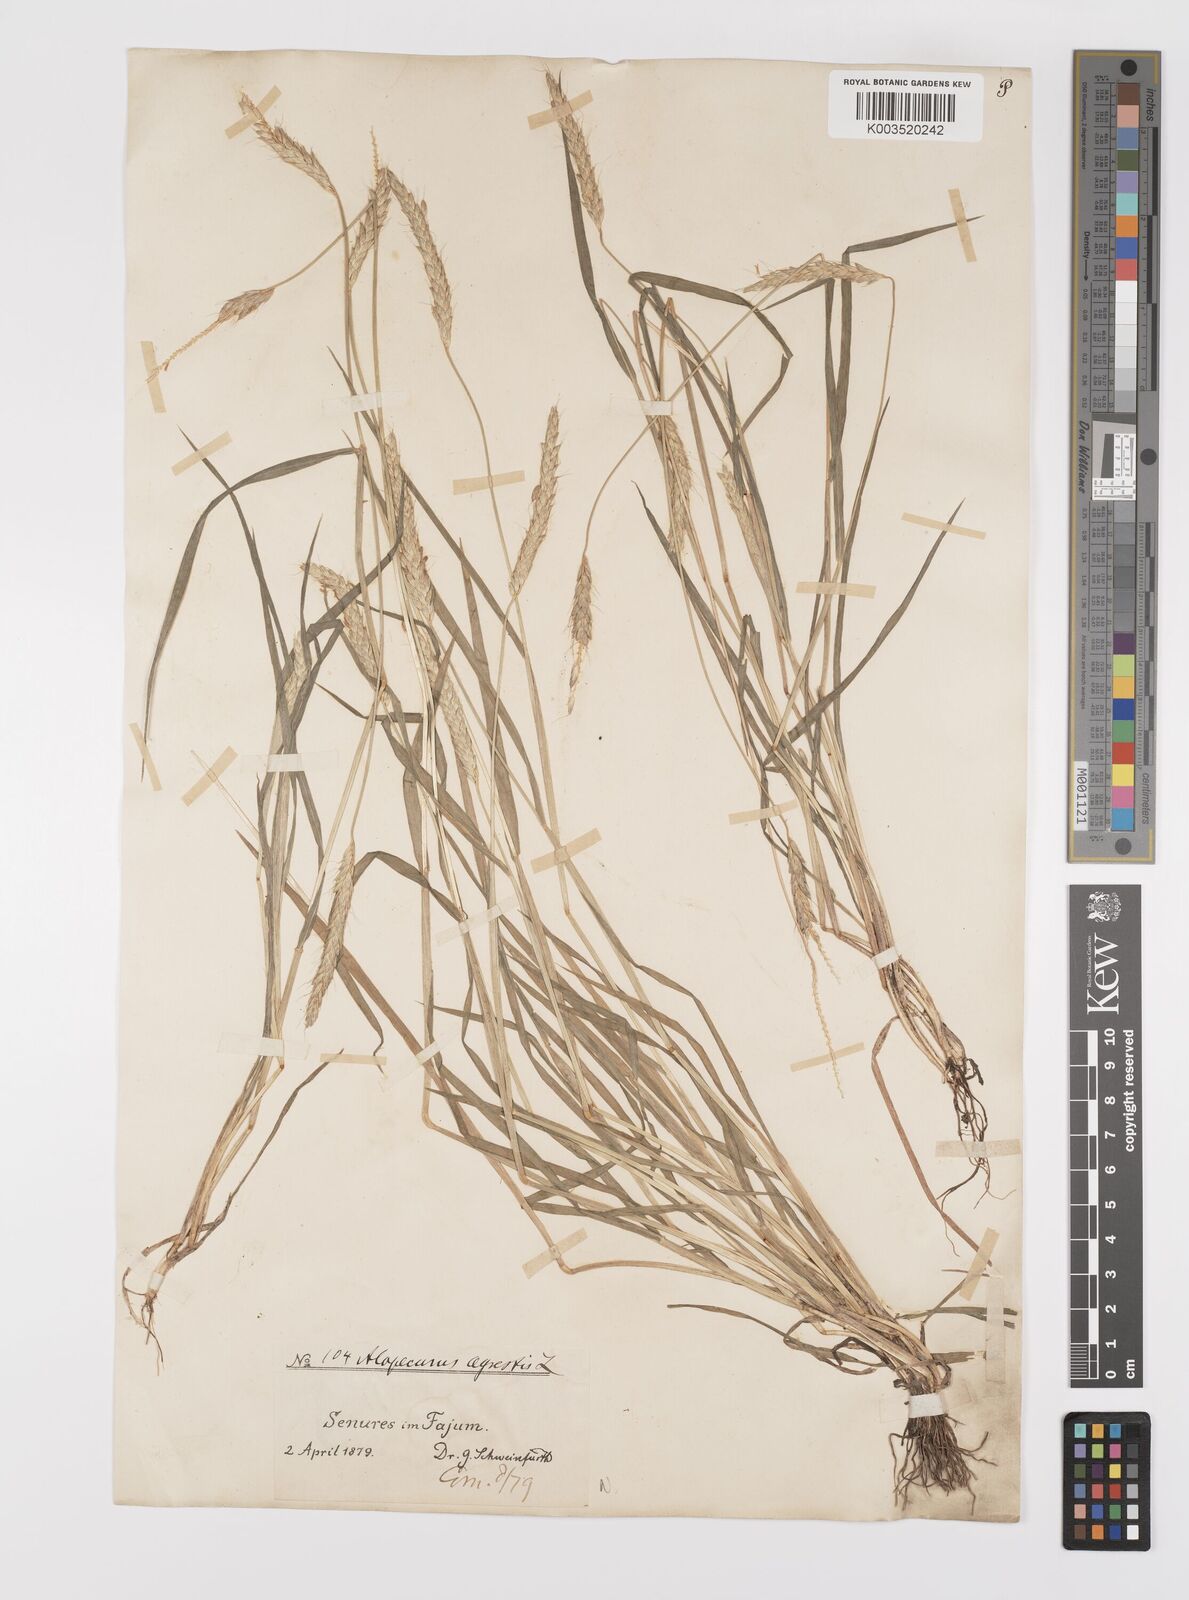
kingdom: Plantae
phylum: Tracheophyta
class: Liliopsida
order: Poales
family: Poaceae
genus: Alopecurus
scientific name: Alopecurus myosuroides
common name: Black-grass
